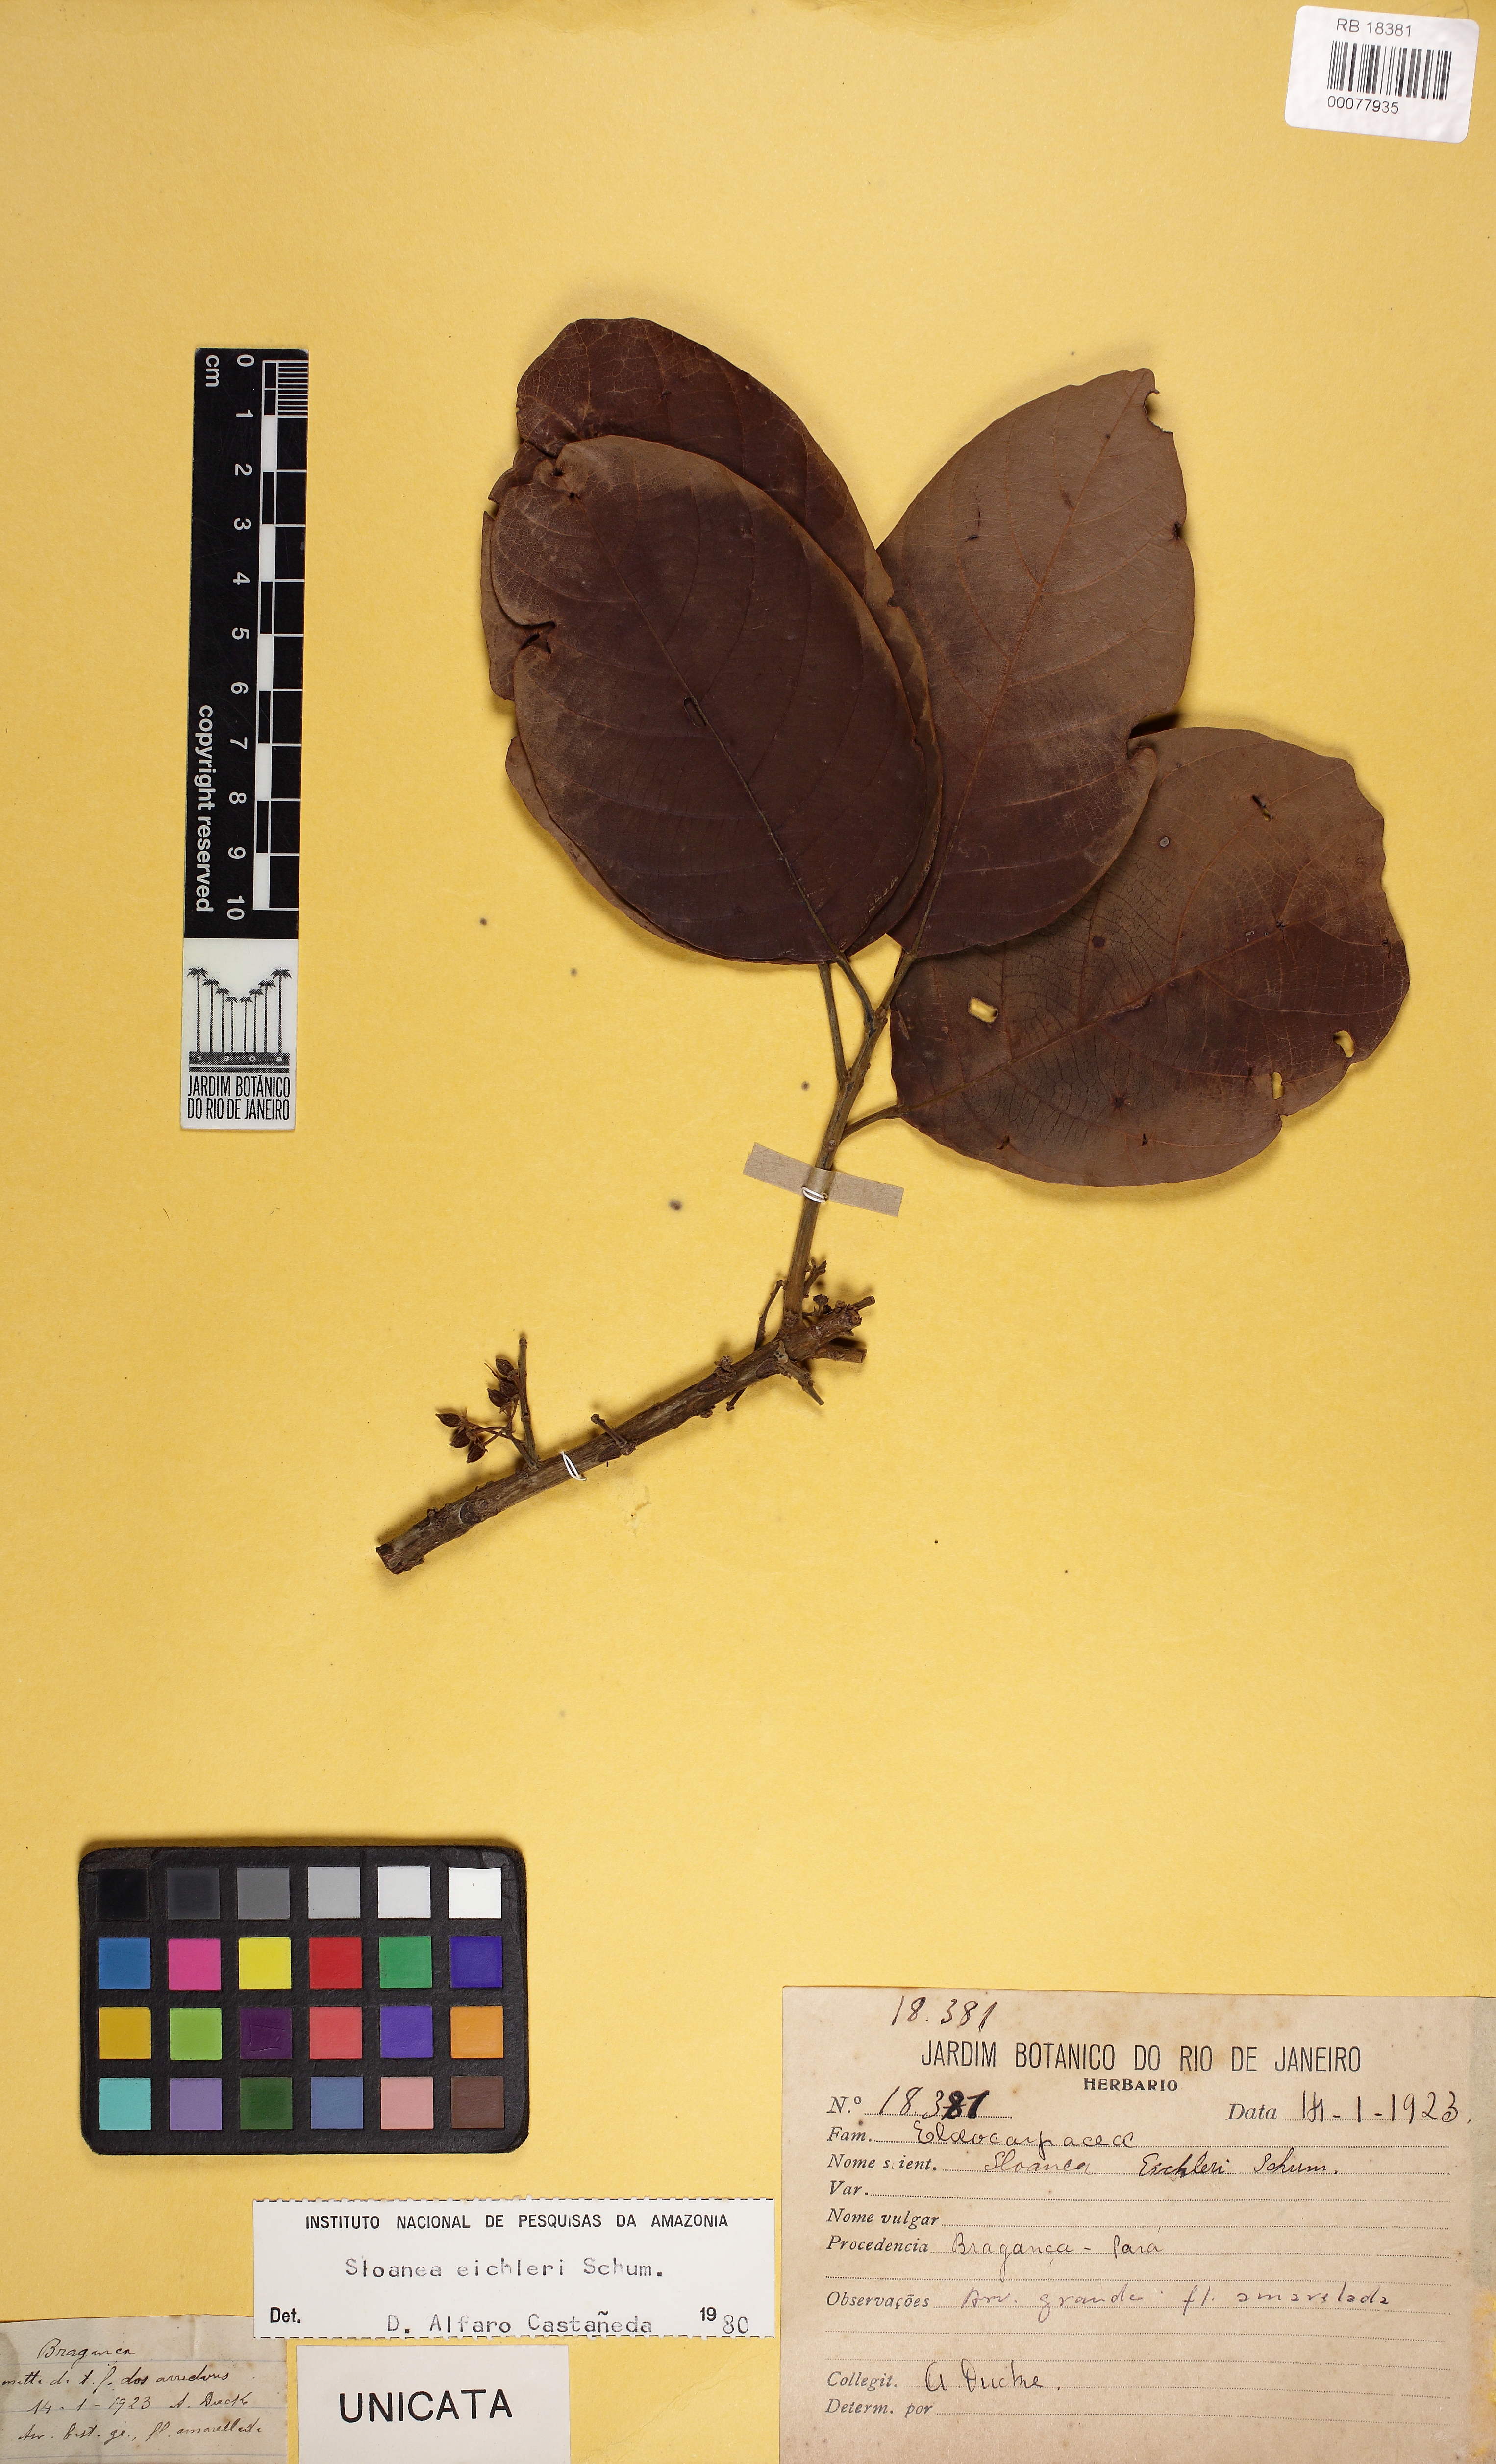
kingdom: Plantae
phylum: Tracheophyta
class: Magnoliopsida
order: Oxalidales
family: Elaeocarpaceae
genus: Sloanea
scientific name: Sloanea eichleri
